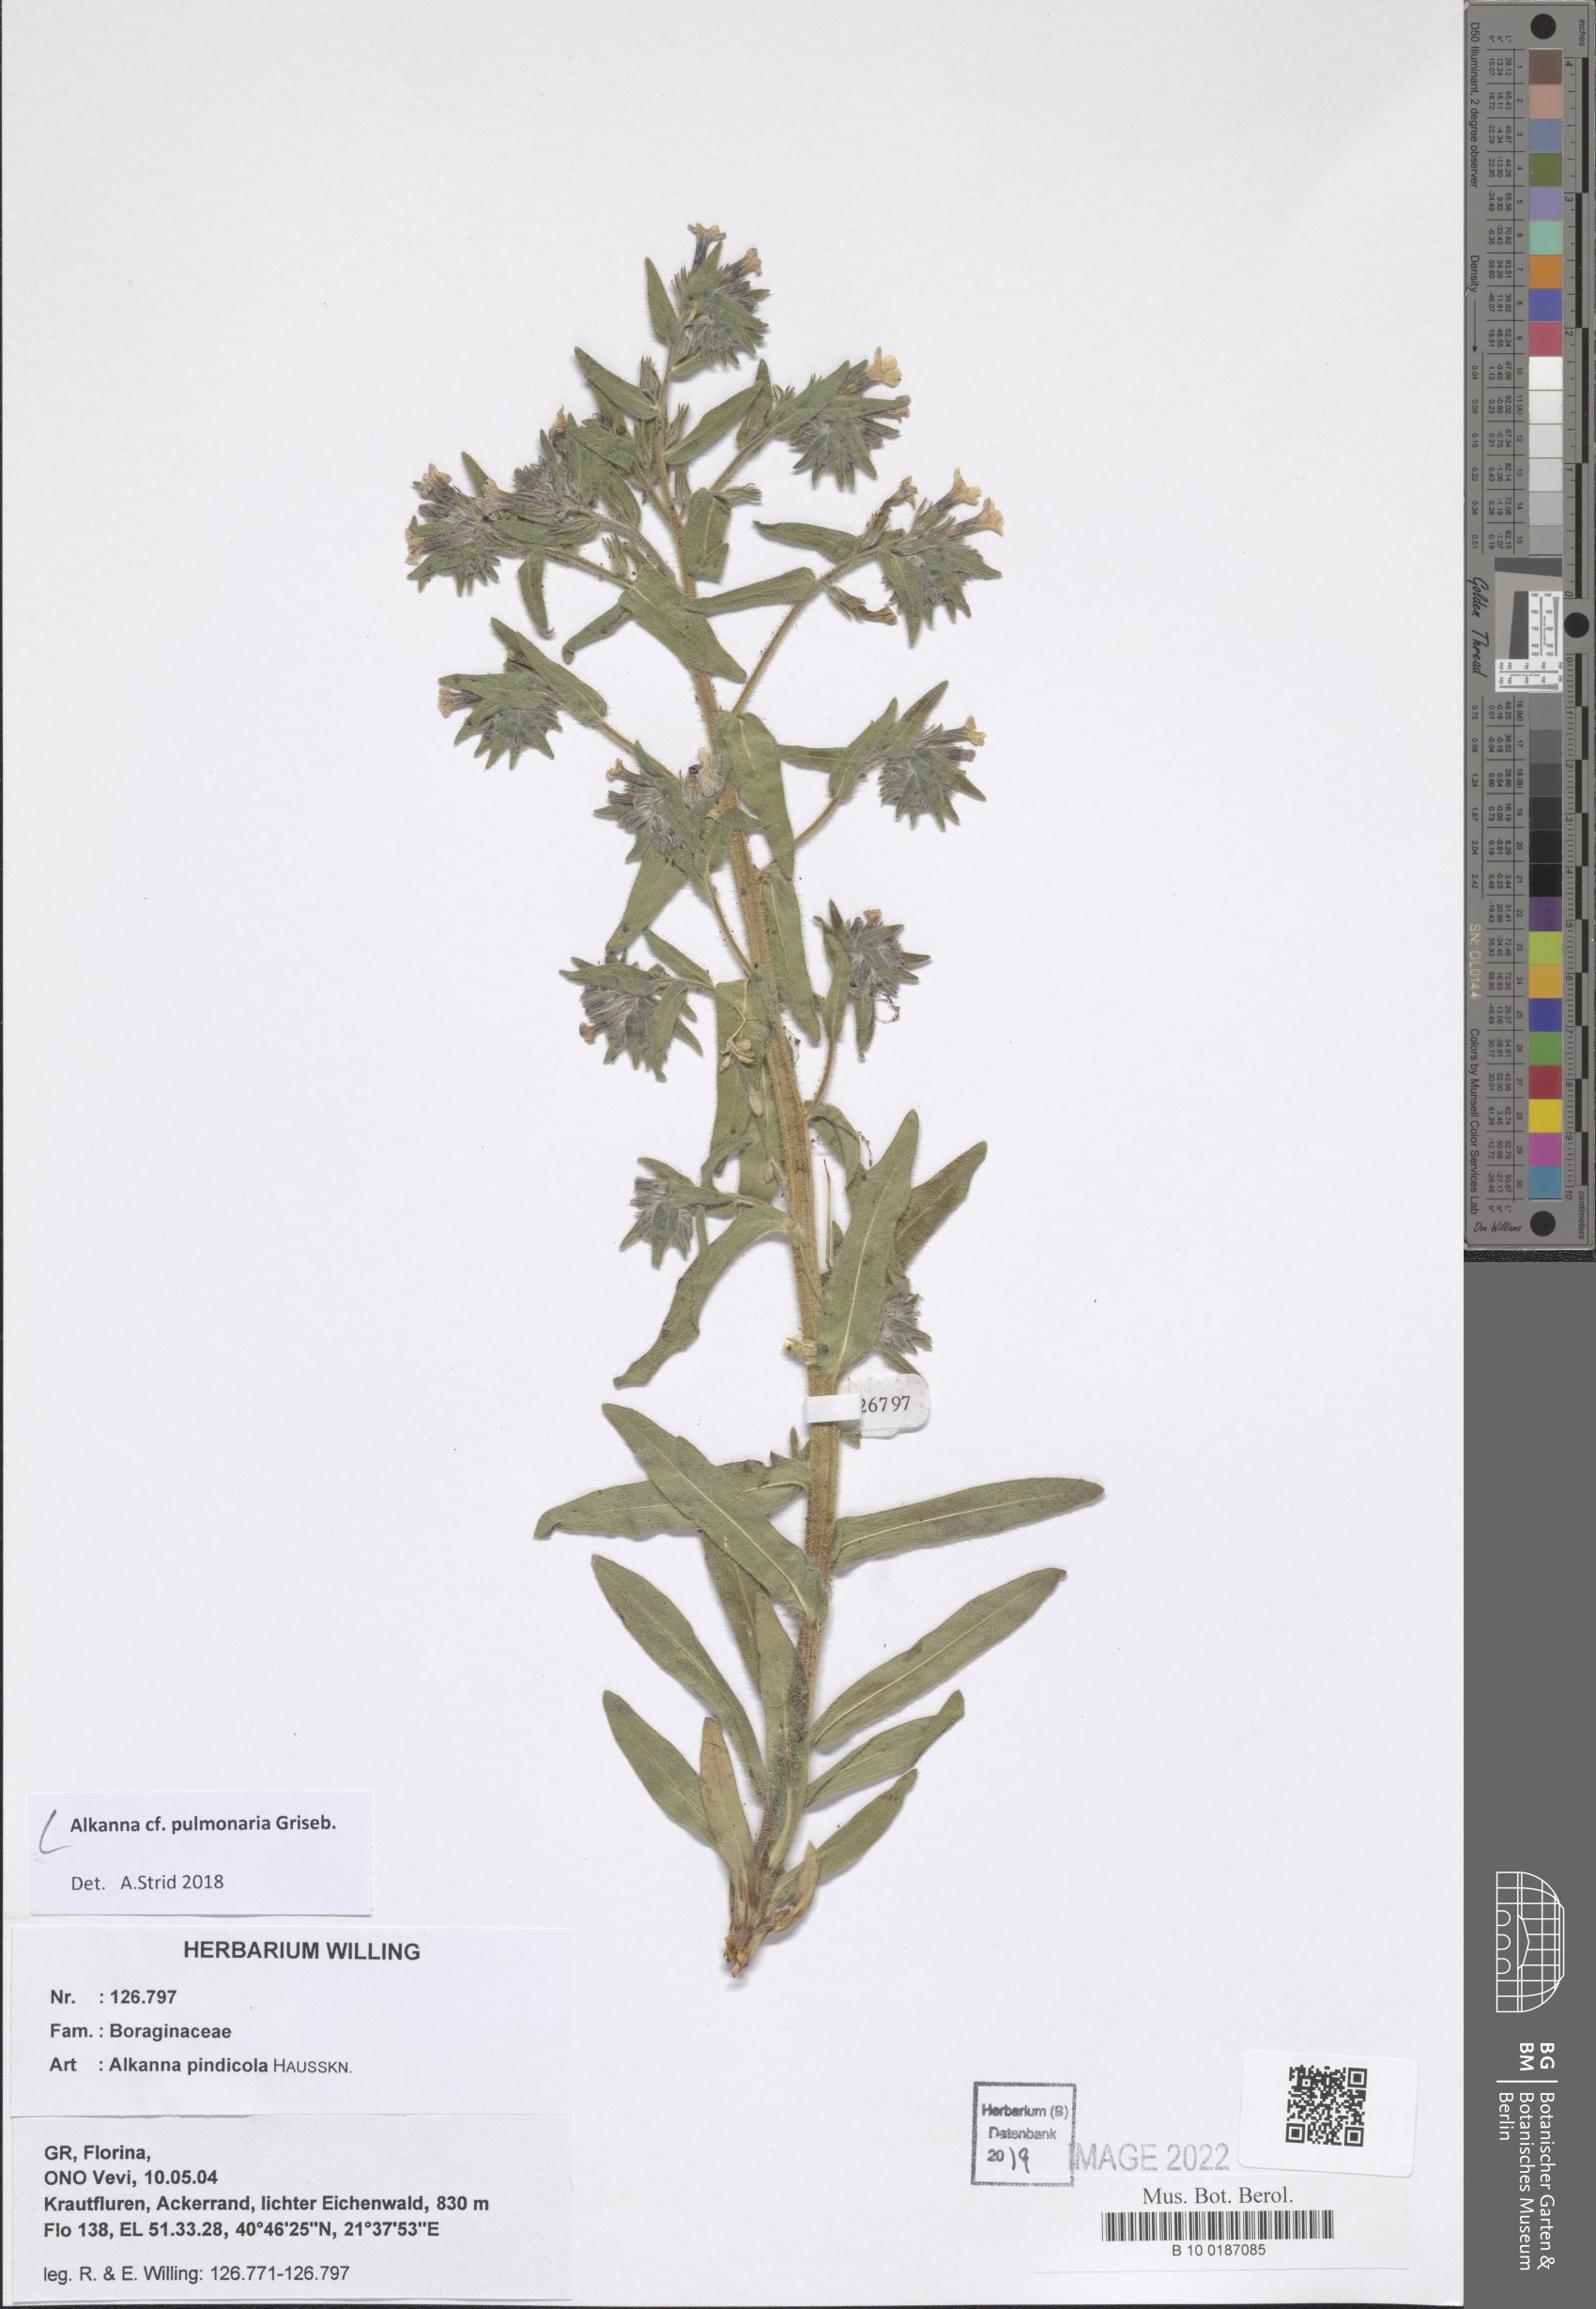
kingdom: Plantae
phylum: Tracheophyta
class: Magnoliopsida
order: Boraginales
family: Boraginaceae
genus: Alkanna
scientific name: Alkanna pulmonaria
